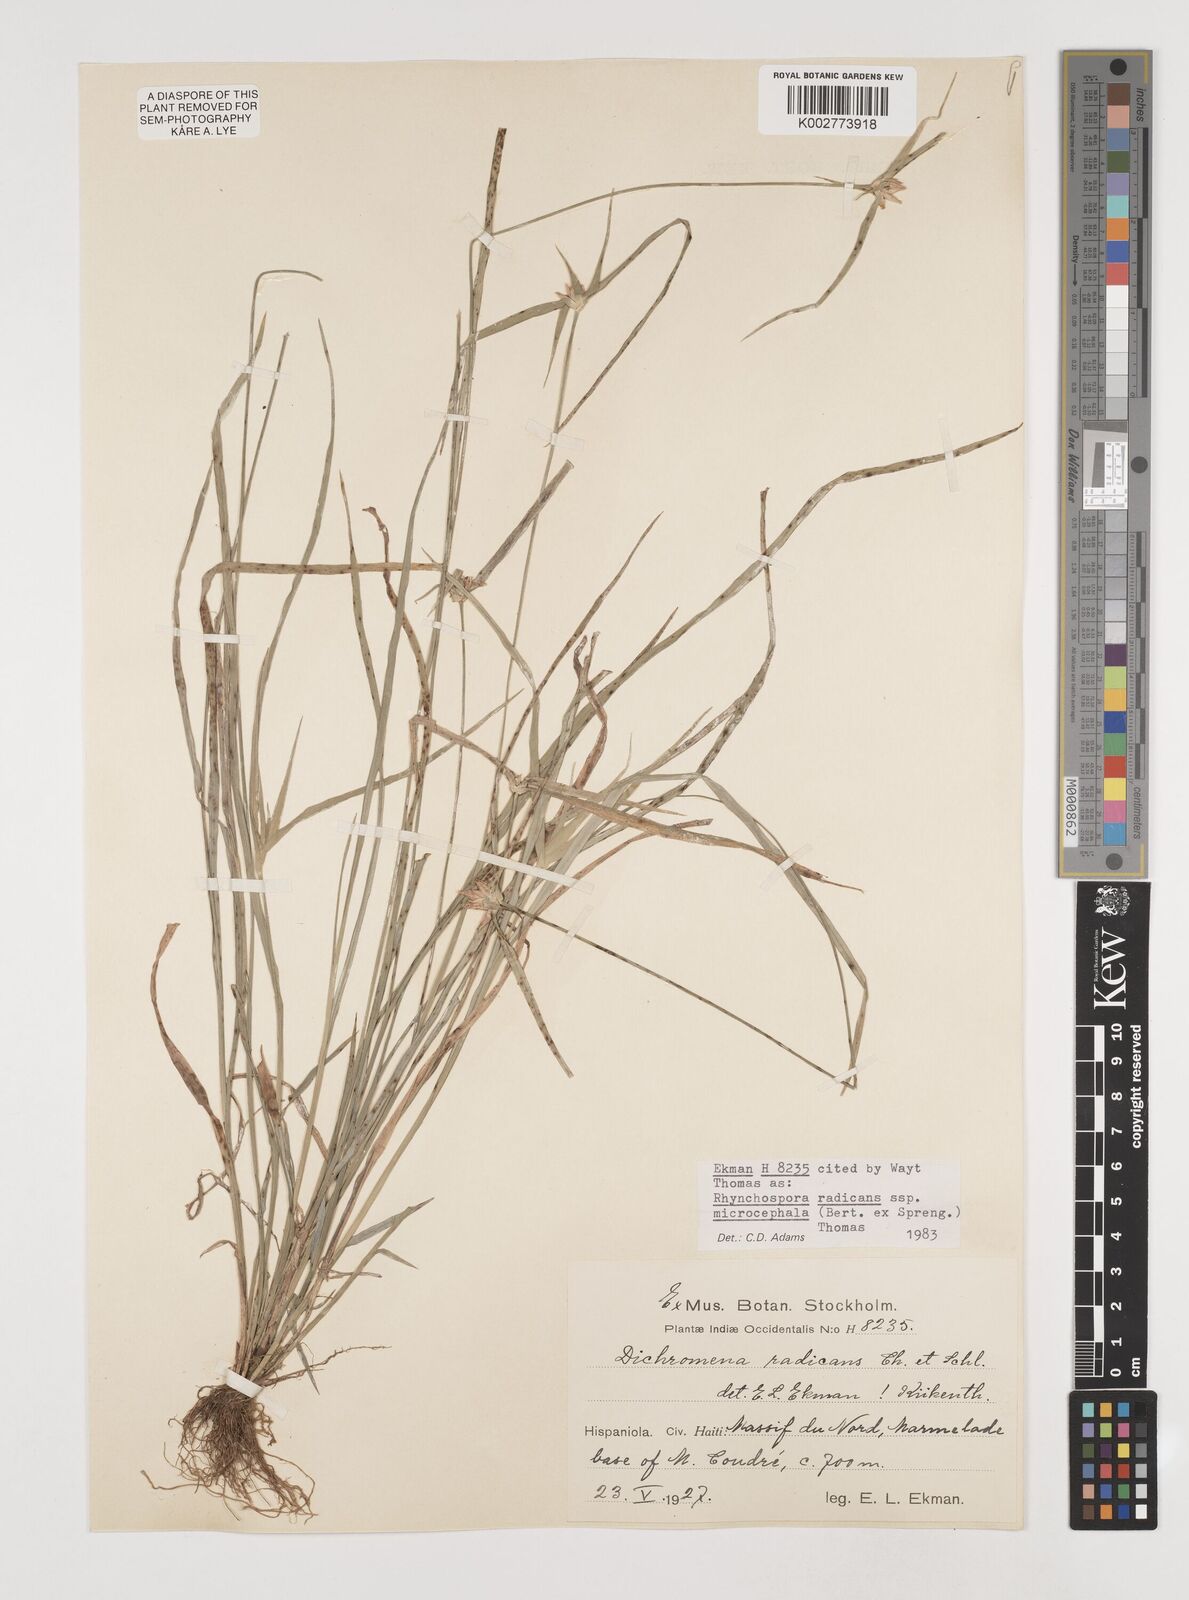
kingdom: Plantae
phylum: Tracheophyta
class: Liliopsida
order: Poales
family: Cyperaceae
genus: Rhynchospora
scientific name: Rhynchospora radicans
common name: Tropical whitetop
